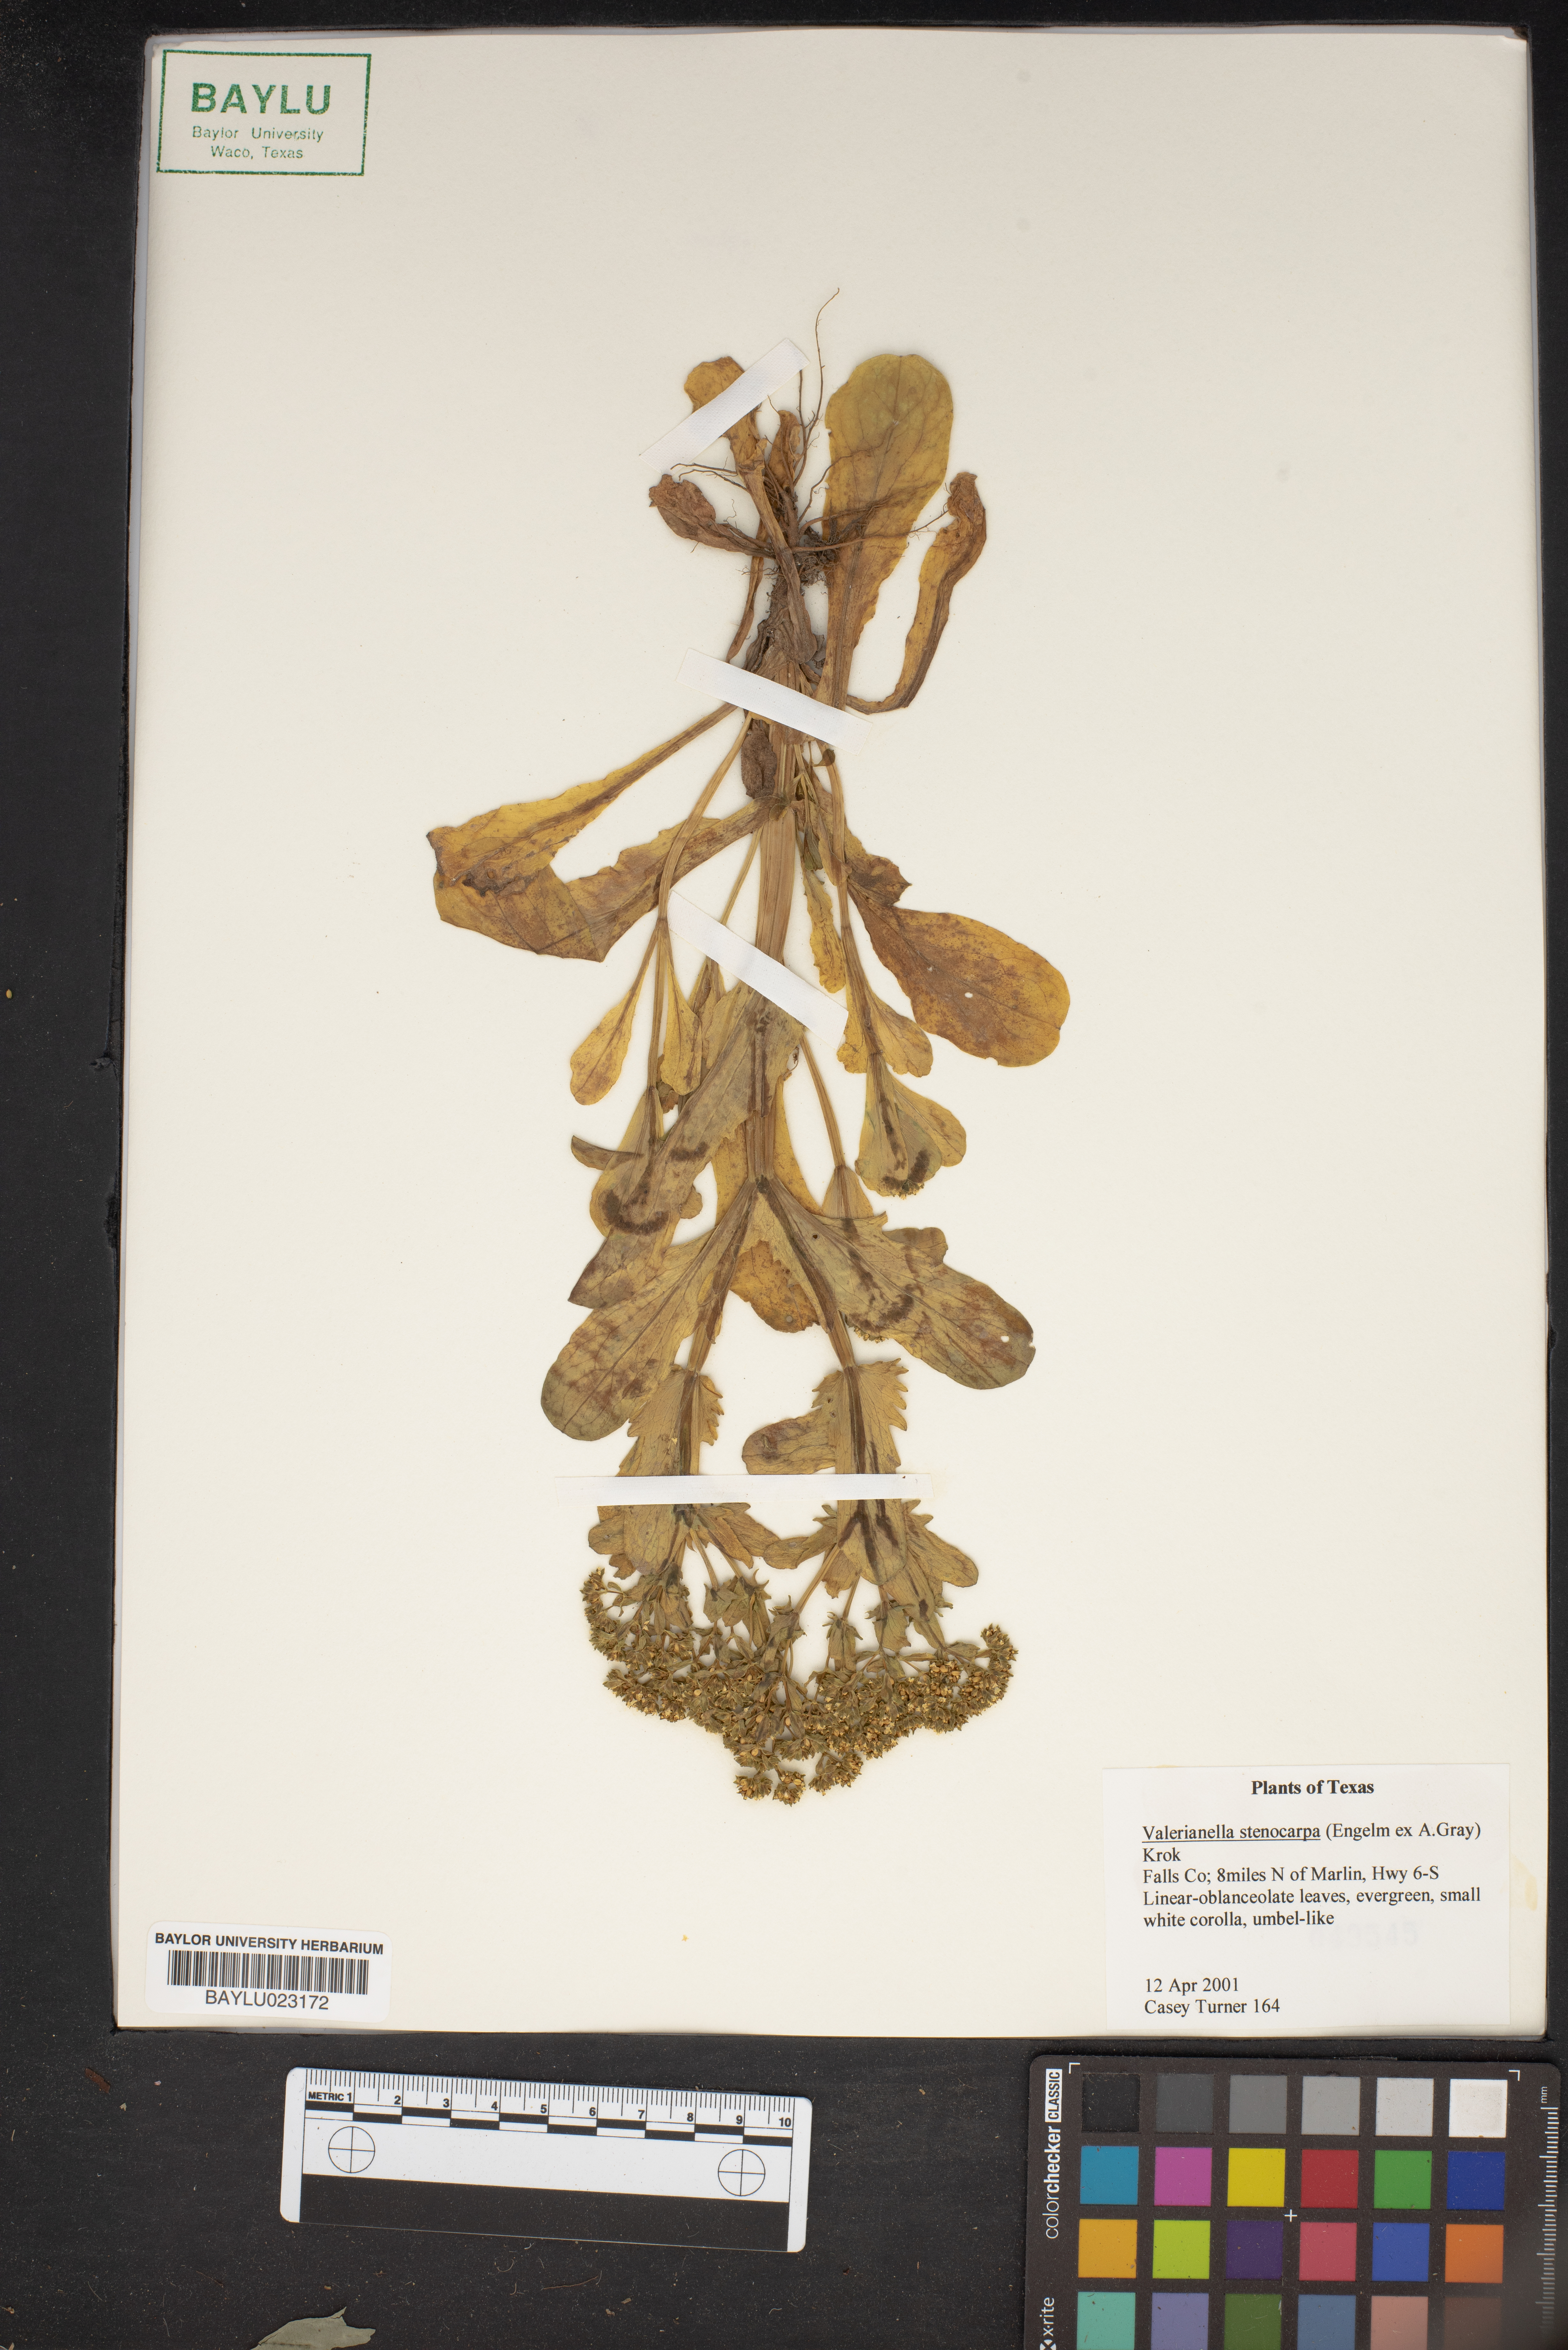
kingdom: Plantae
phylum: Tracheophyta
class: Magnoliopsida
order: Dipsacales
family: Caprifoliaceae
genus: Valerianella
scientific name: Valerianella stenocarpa
